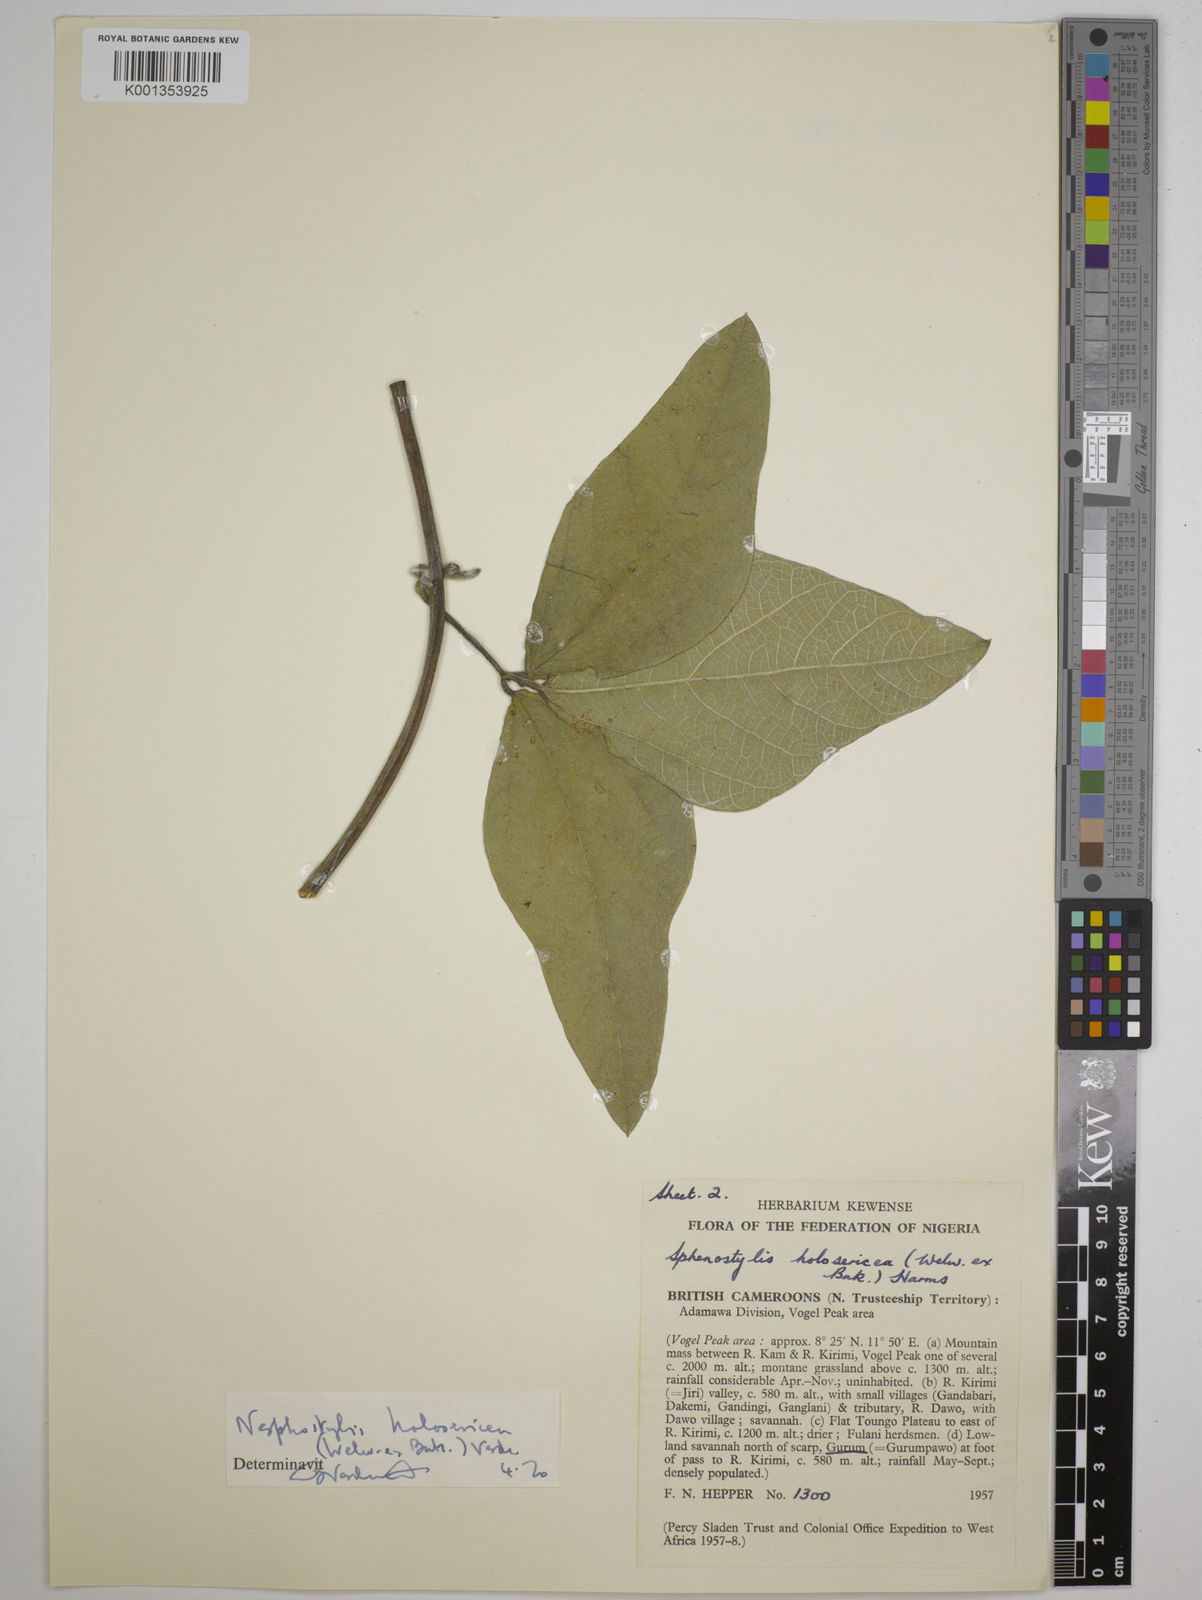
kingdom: Plantae
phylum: Tracheophyta
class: Magnoliopsida
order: Fabales
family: Fabaceae
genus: Nesphostylis
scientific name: Nesphostylis holosericea
